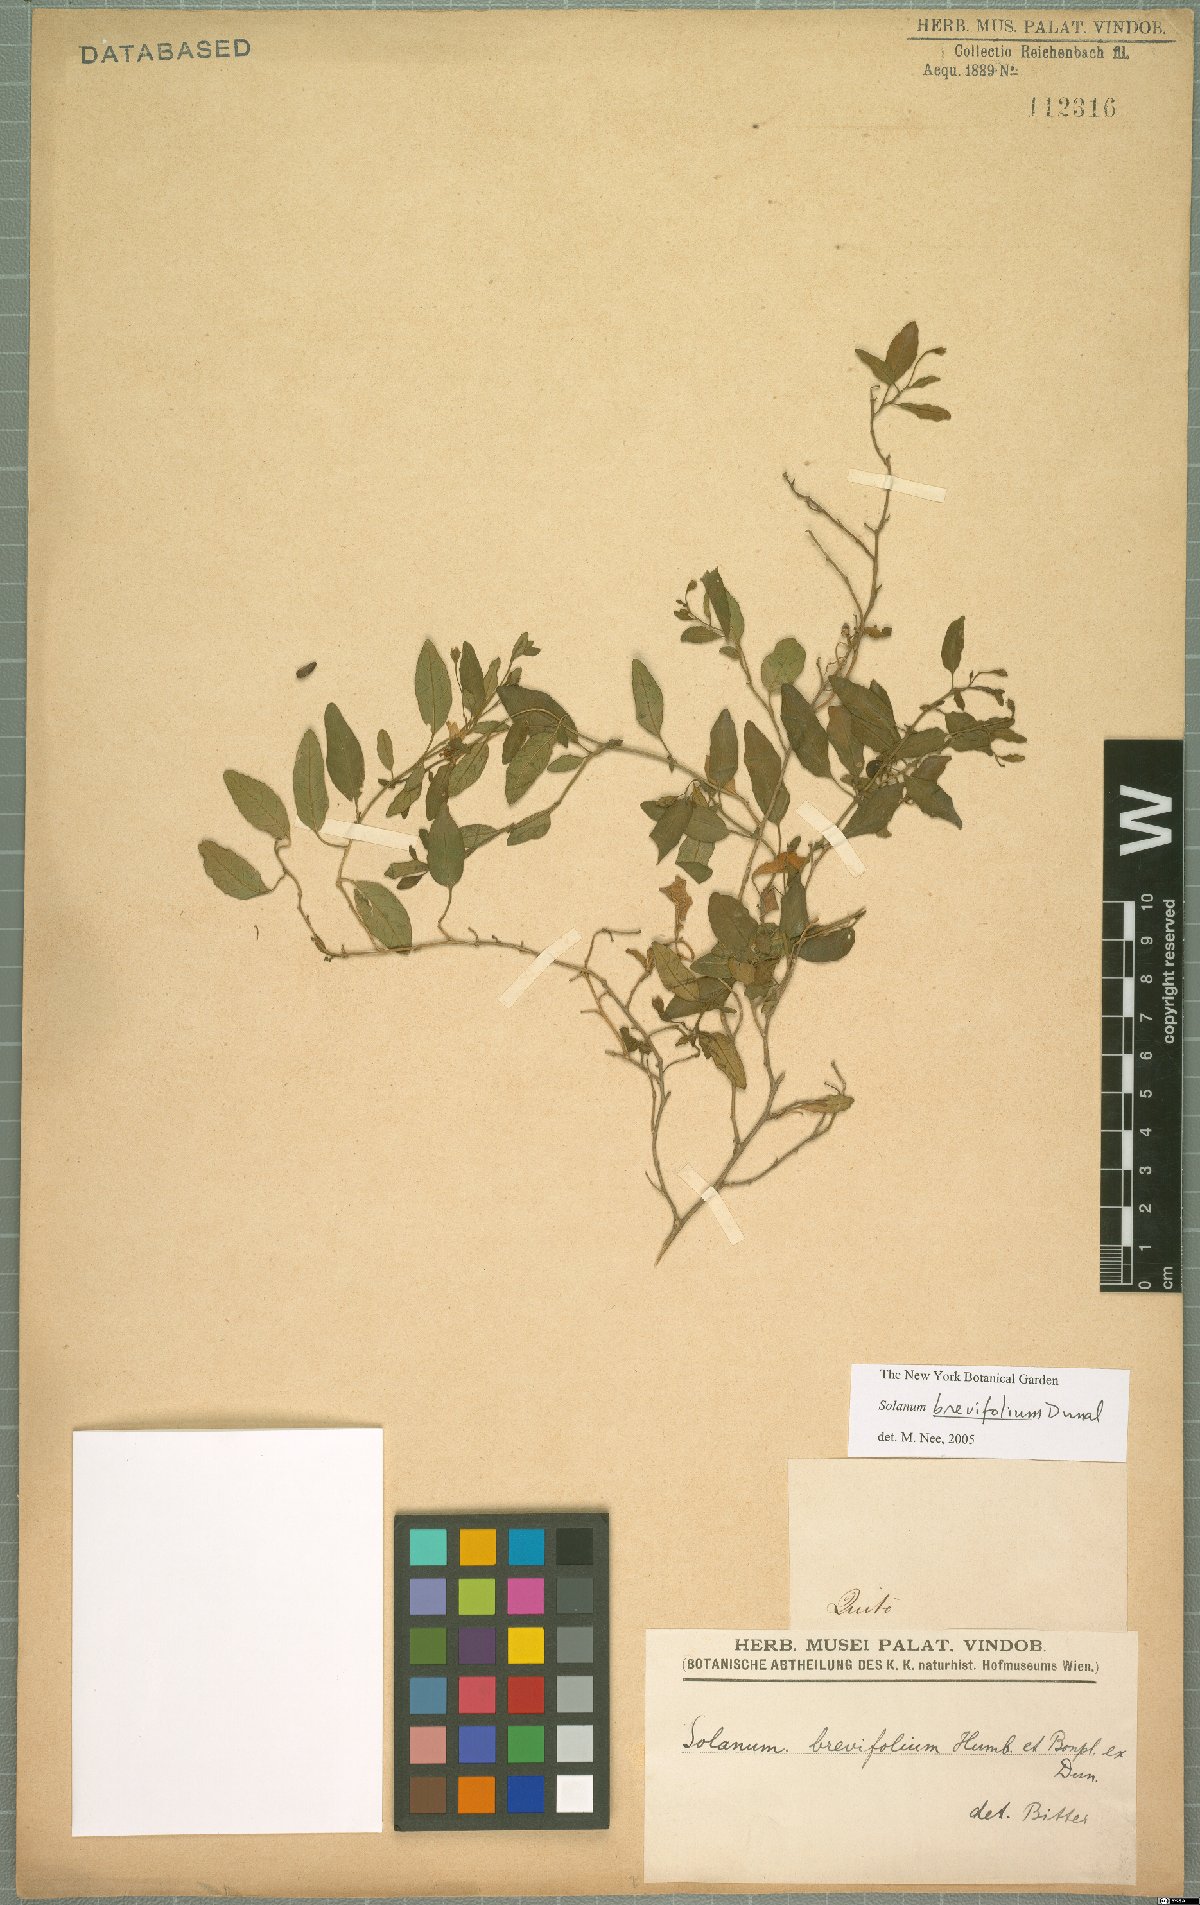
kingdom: Plantae
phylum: Tracheophyta
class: Magnoliopsida
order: Solanales
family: Solanaceae
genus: Solanum
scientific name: Solanum brevifolium
